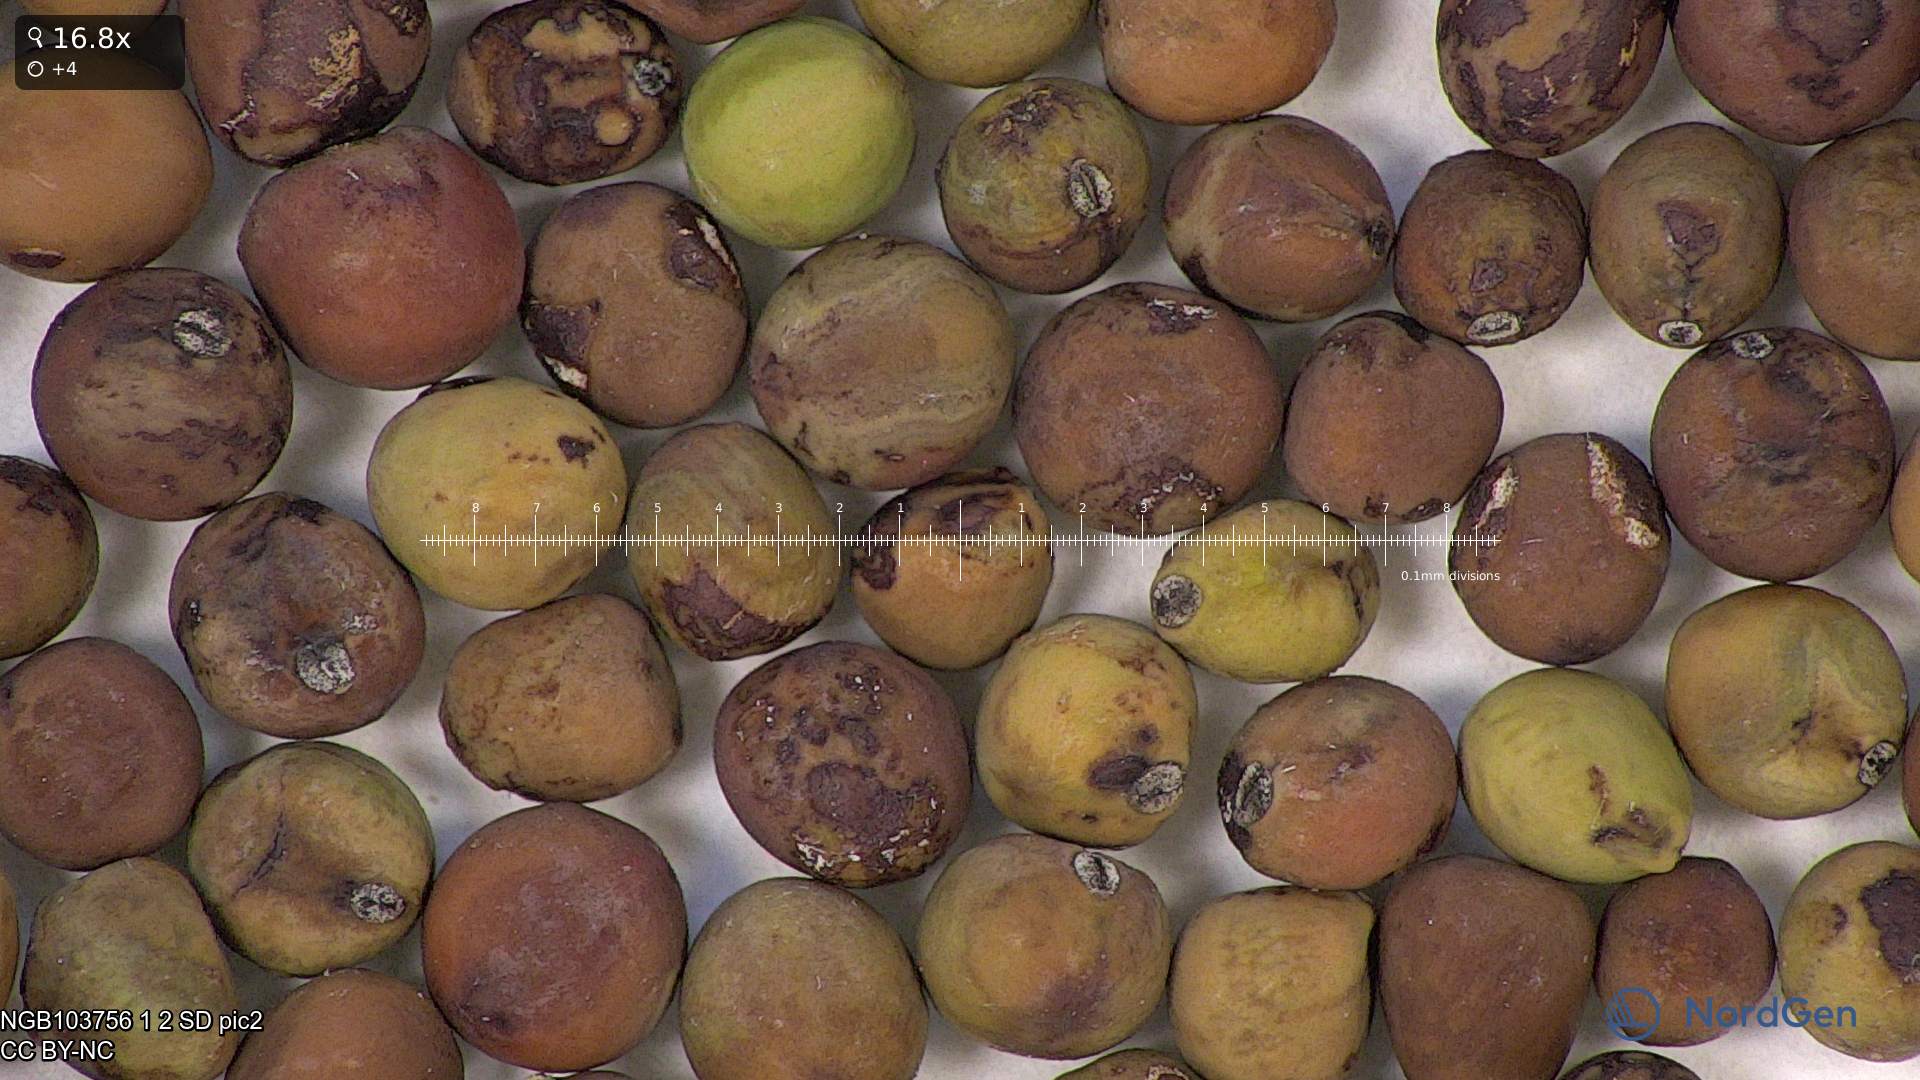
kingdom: Plantae
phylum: Tracheophyta
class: Magnoliopsida
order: Fabales
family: Fabaceae
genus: Lathyrus
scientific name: Lathyrus oleraceus
